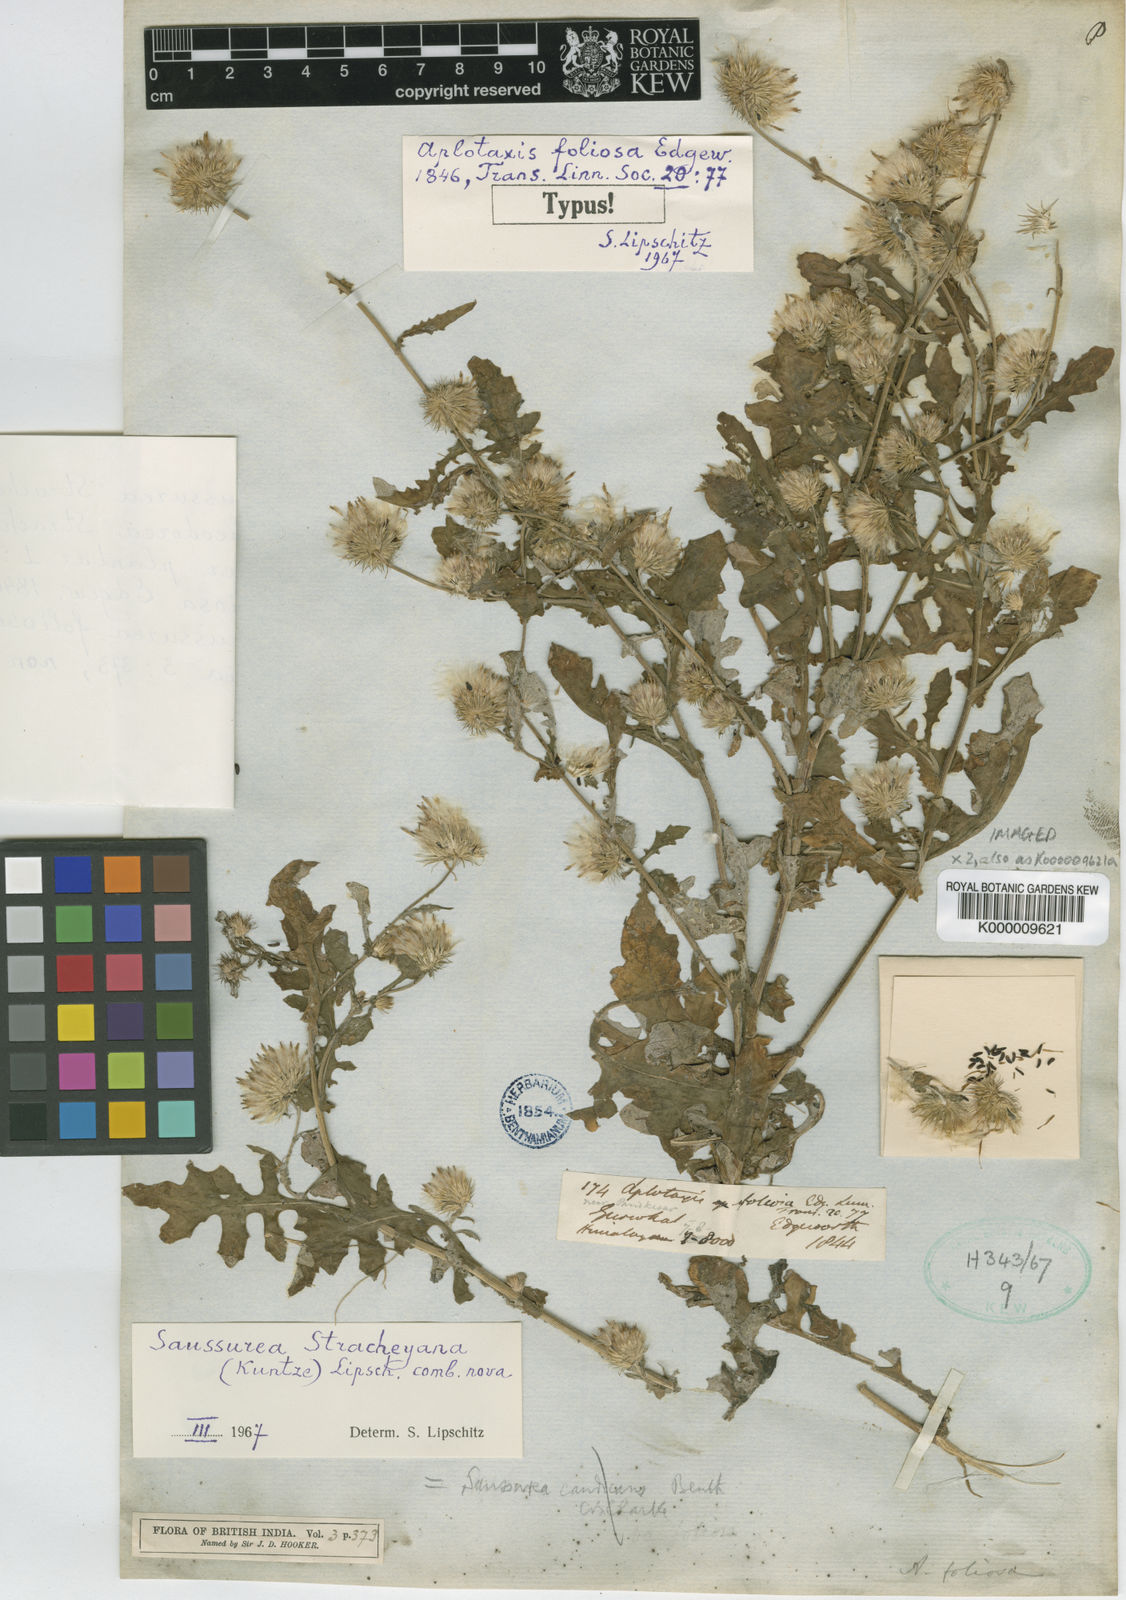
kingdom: Plantae
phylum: Tracheophyta
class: Magnoliopsida
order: Asterales
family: Asteraceae
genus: Saussurea
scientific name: Saussurea edgeworthii
